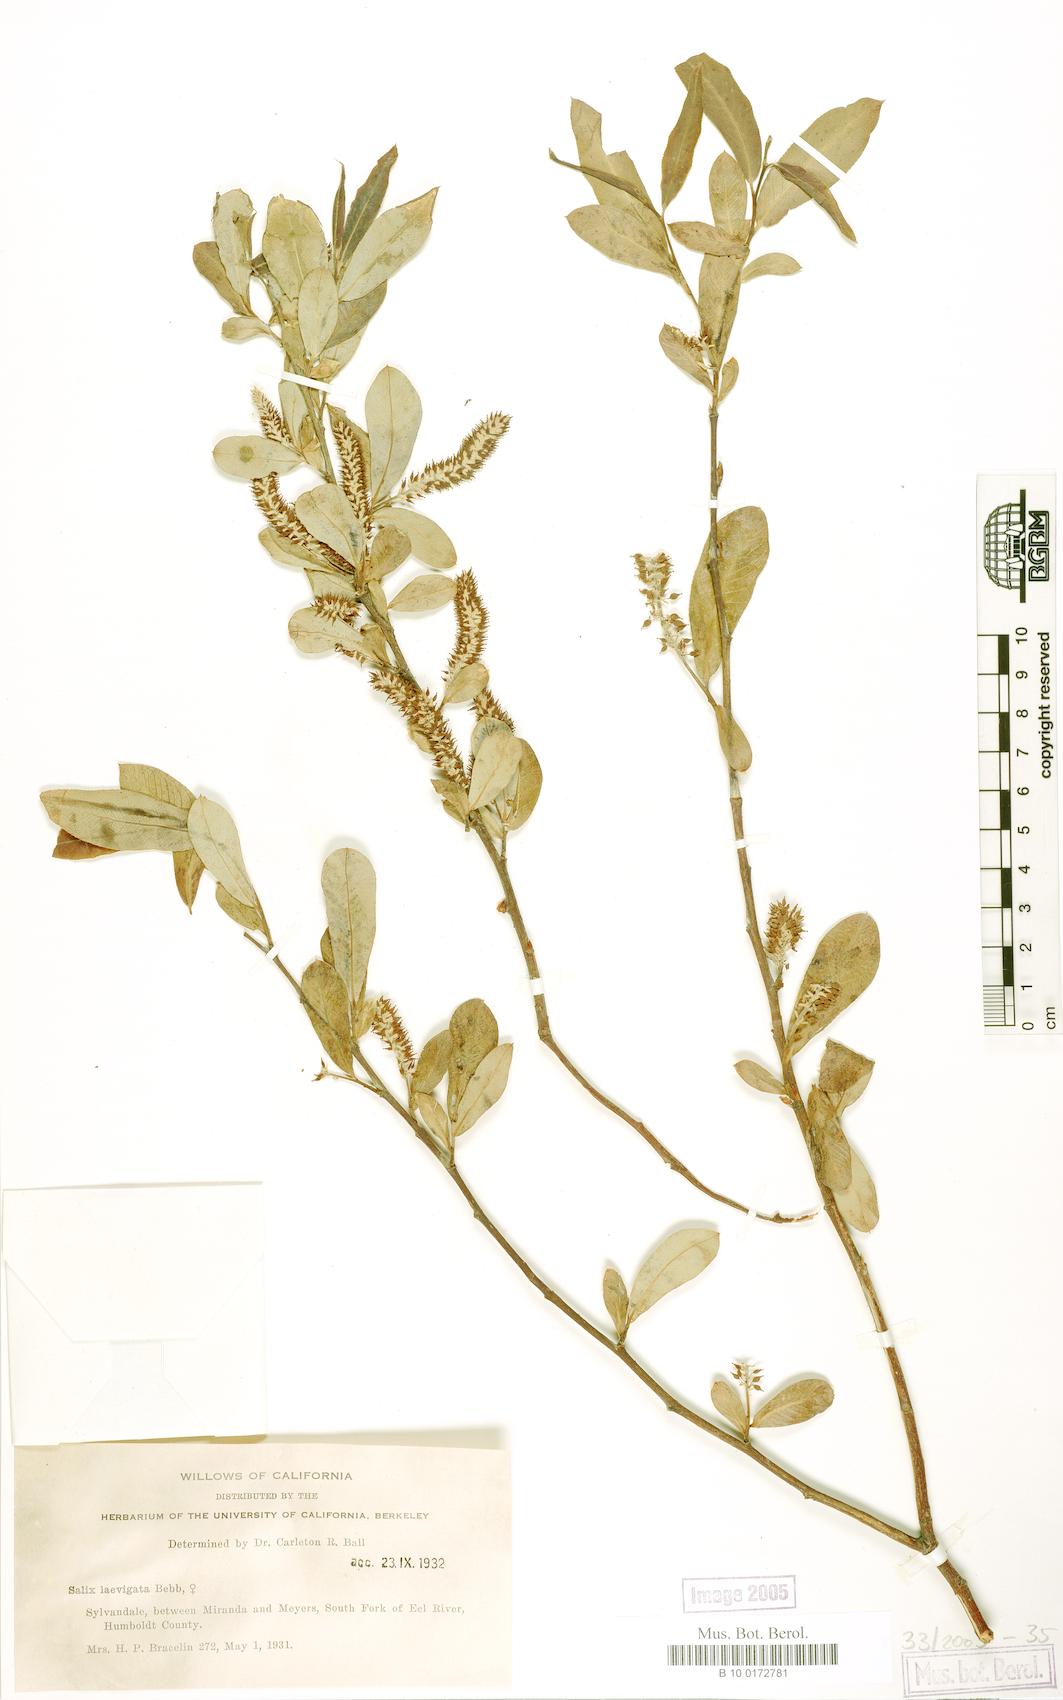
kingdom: Plantae
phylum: Tracheophyta
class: Magnoliopsida
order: Malpighiales
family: Salicaceae
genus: Salix
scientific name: Salix laevigata
